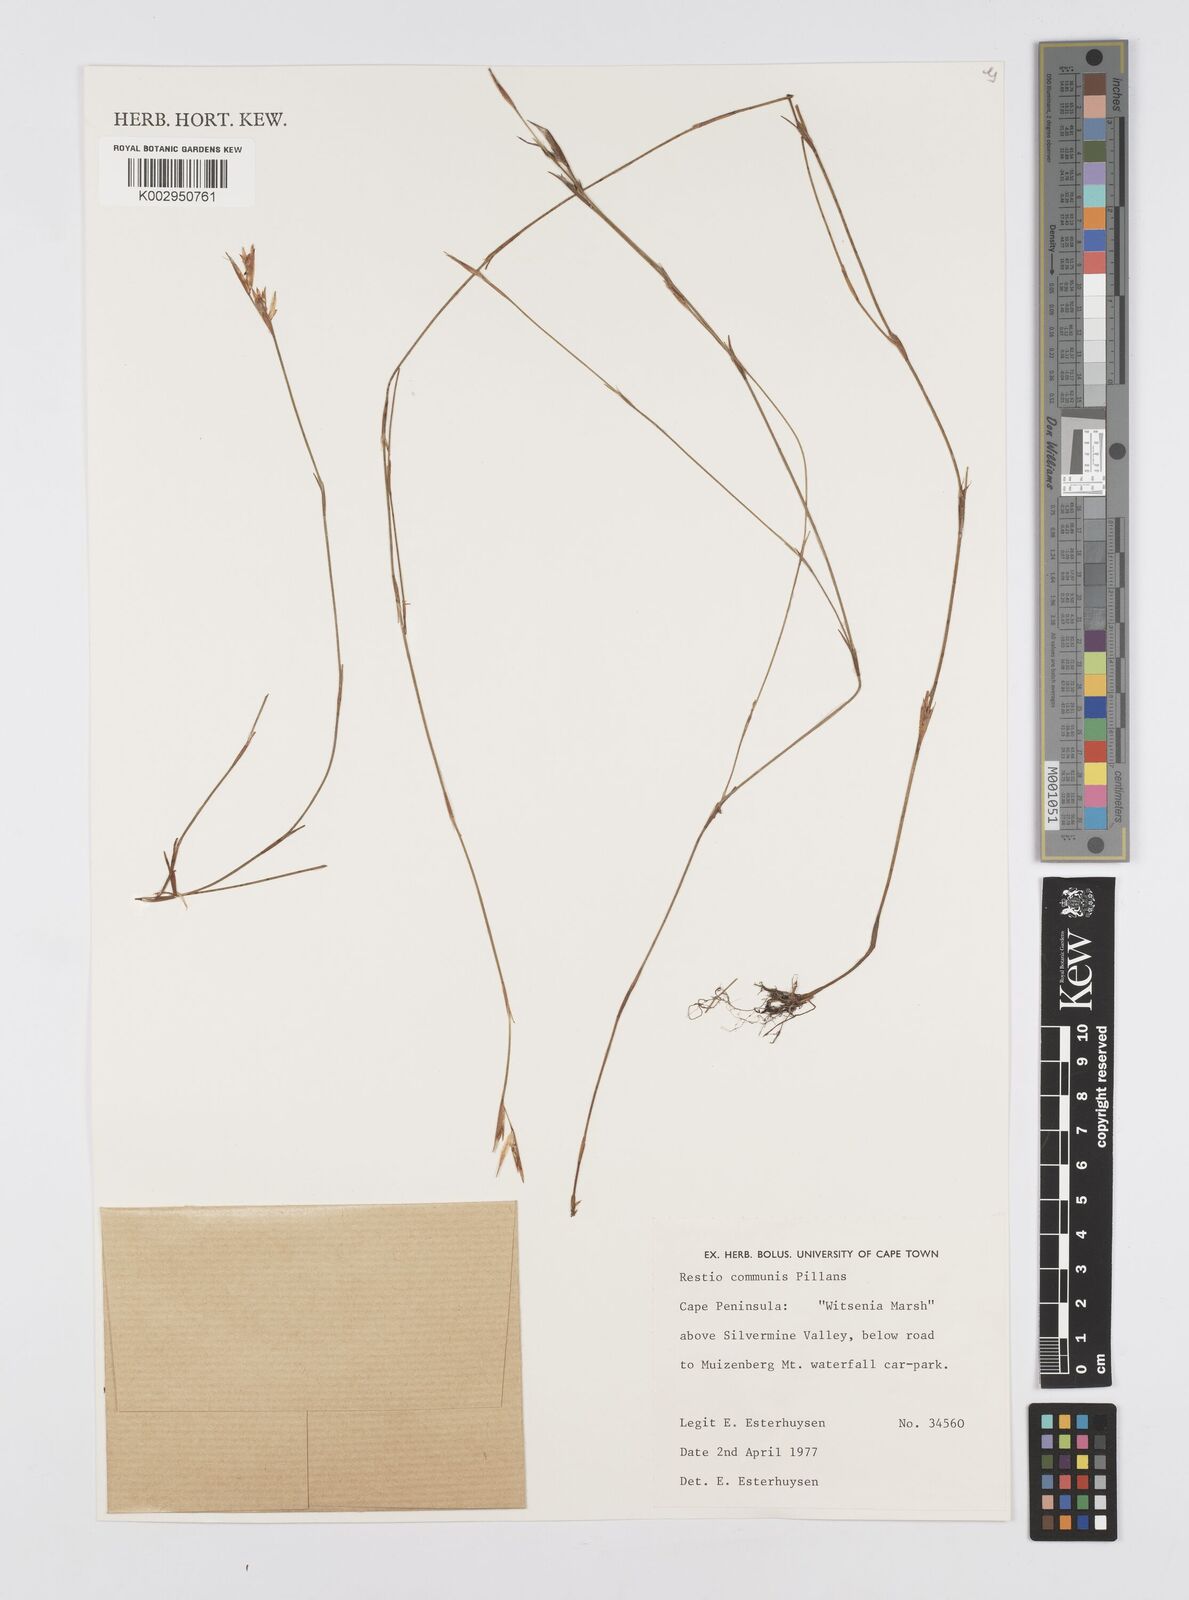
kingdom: Plantae
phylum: Tracheophyta
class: Liliopsida
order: Poales
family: Restionaceae
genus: Restio
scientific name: Restio communis
